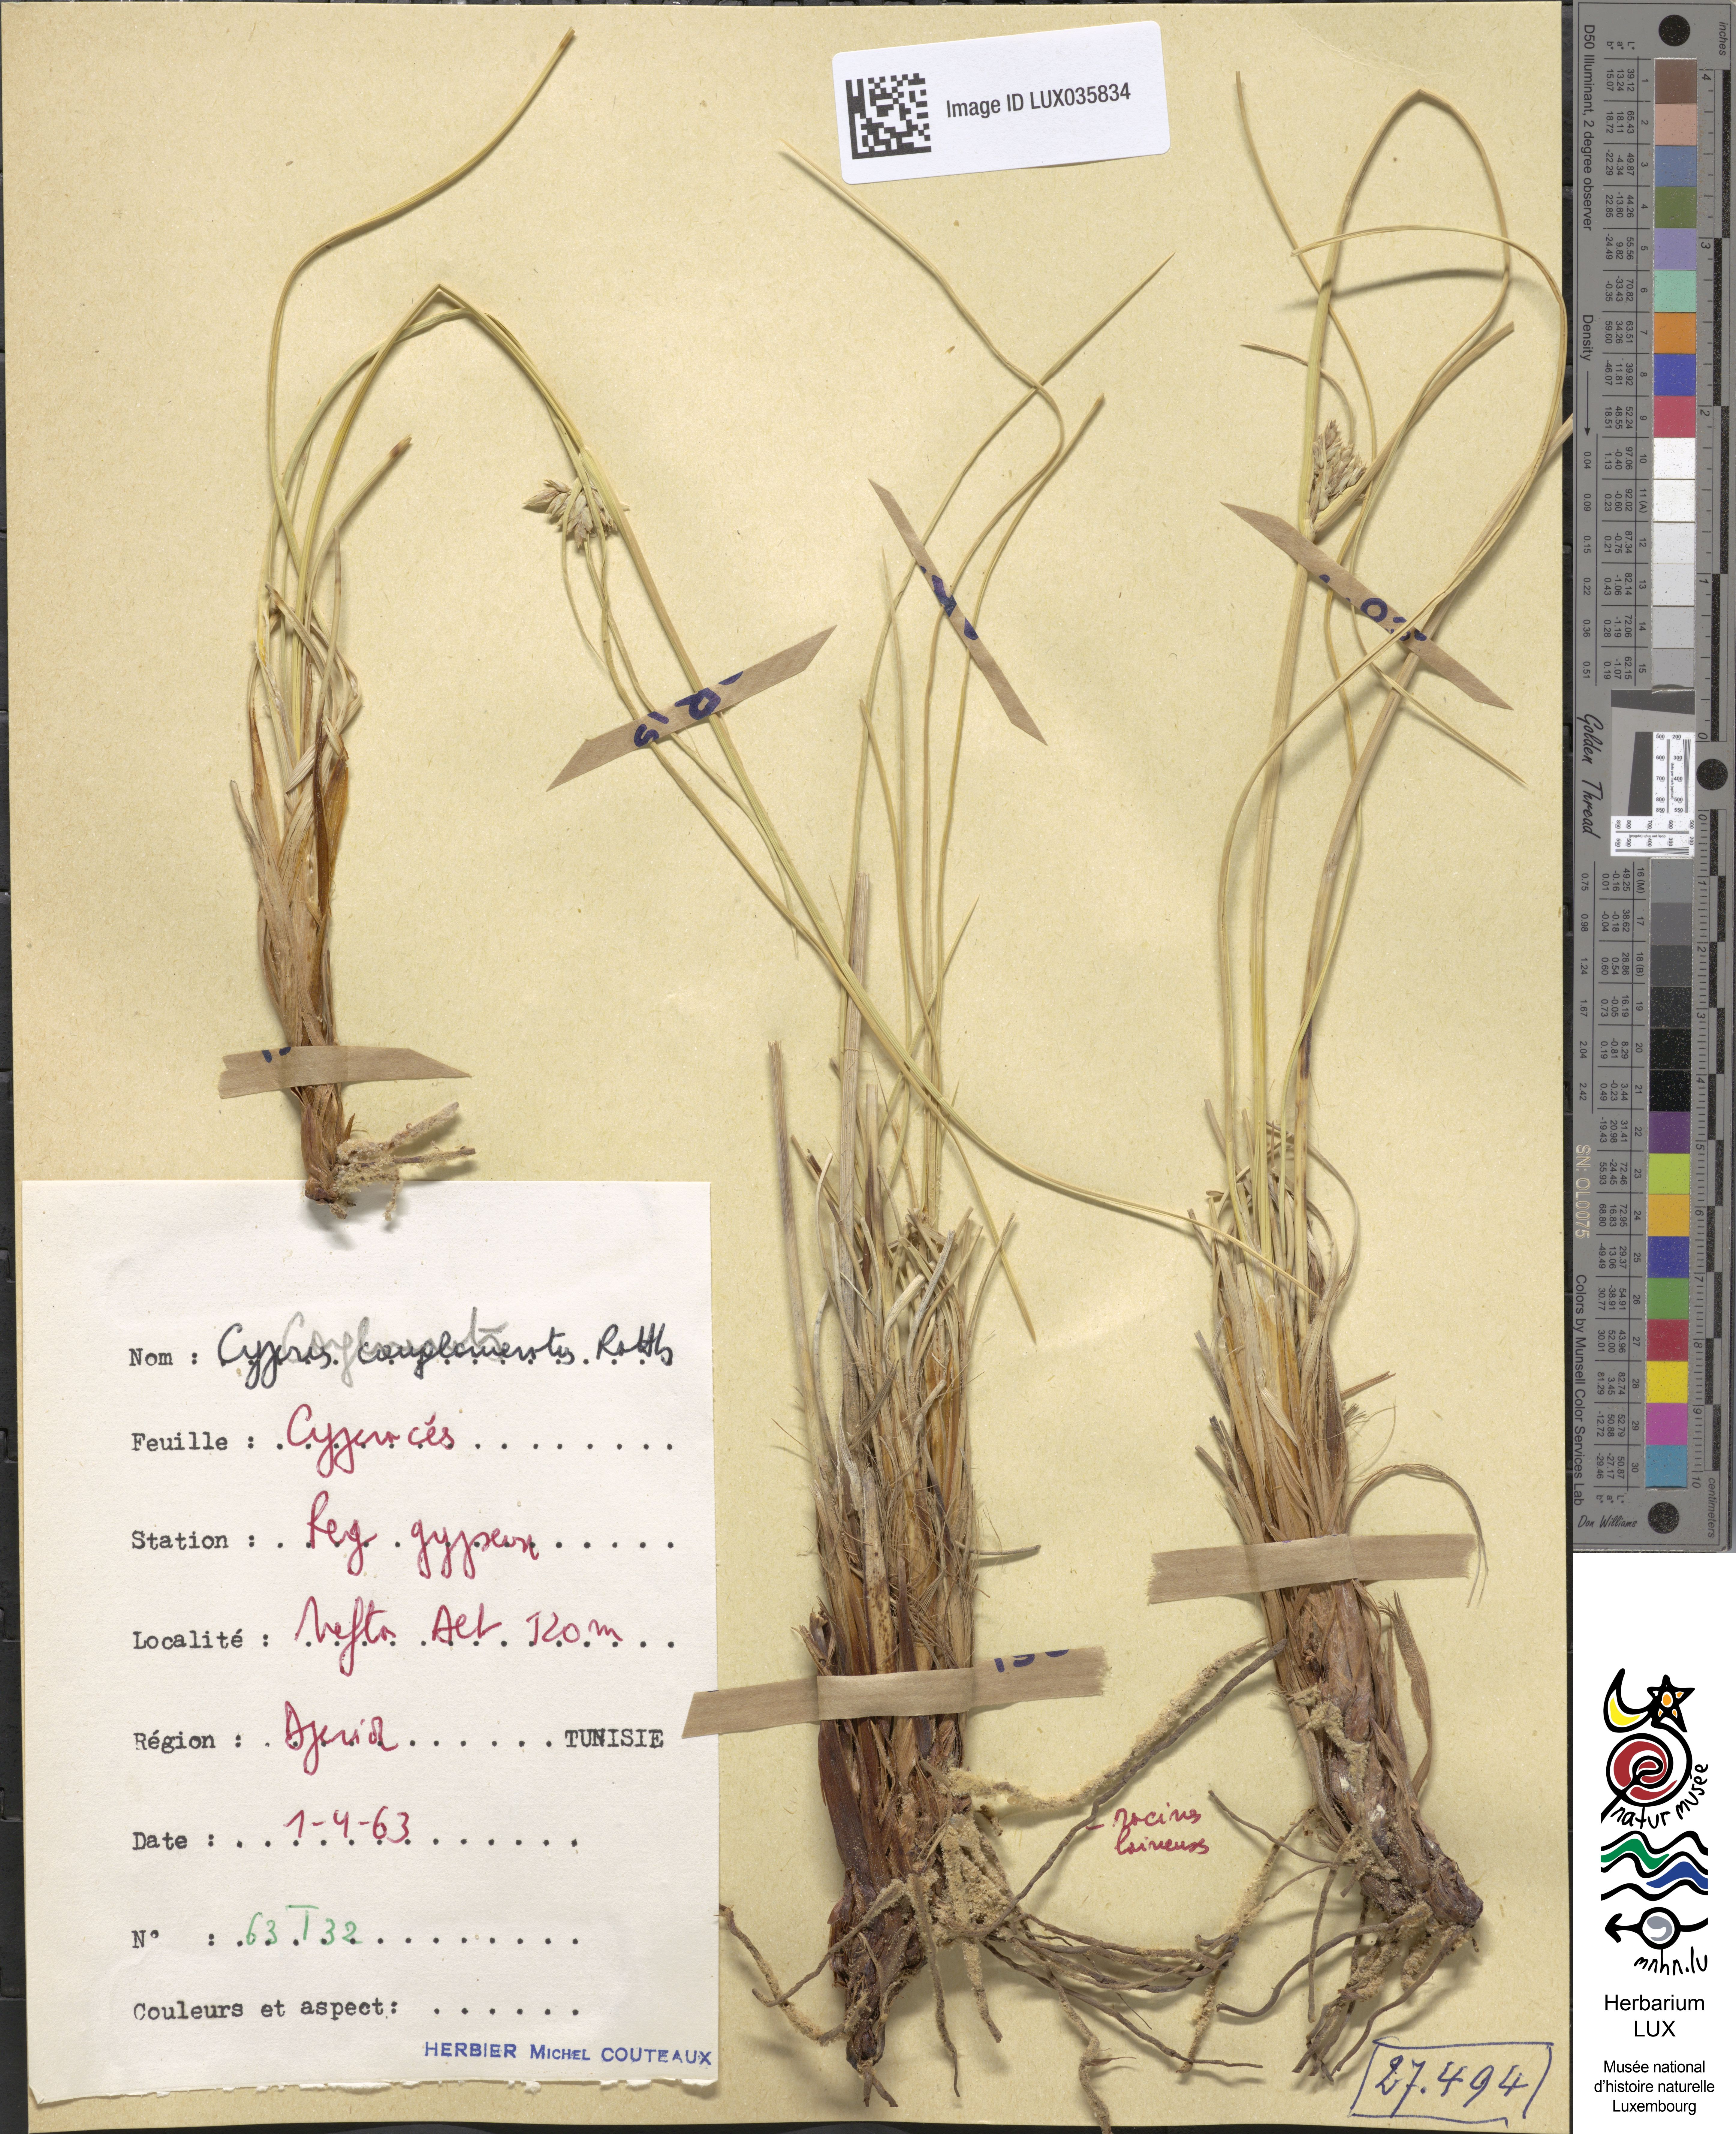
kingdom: Plantae
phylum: Tracheophyta
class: Liliopsida
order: Poales
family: Cyperaceae
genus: Cyperus
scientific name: Cyperus conglomeratus
